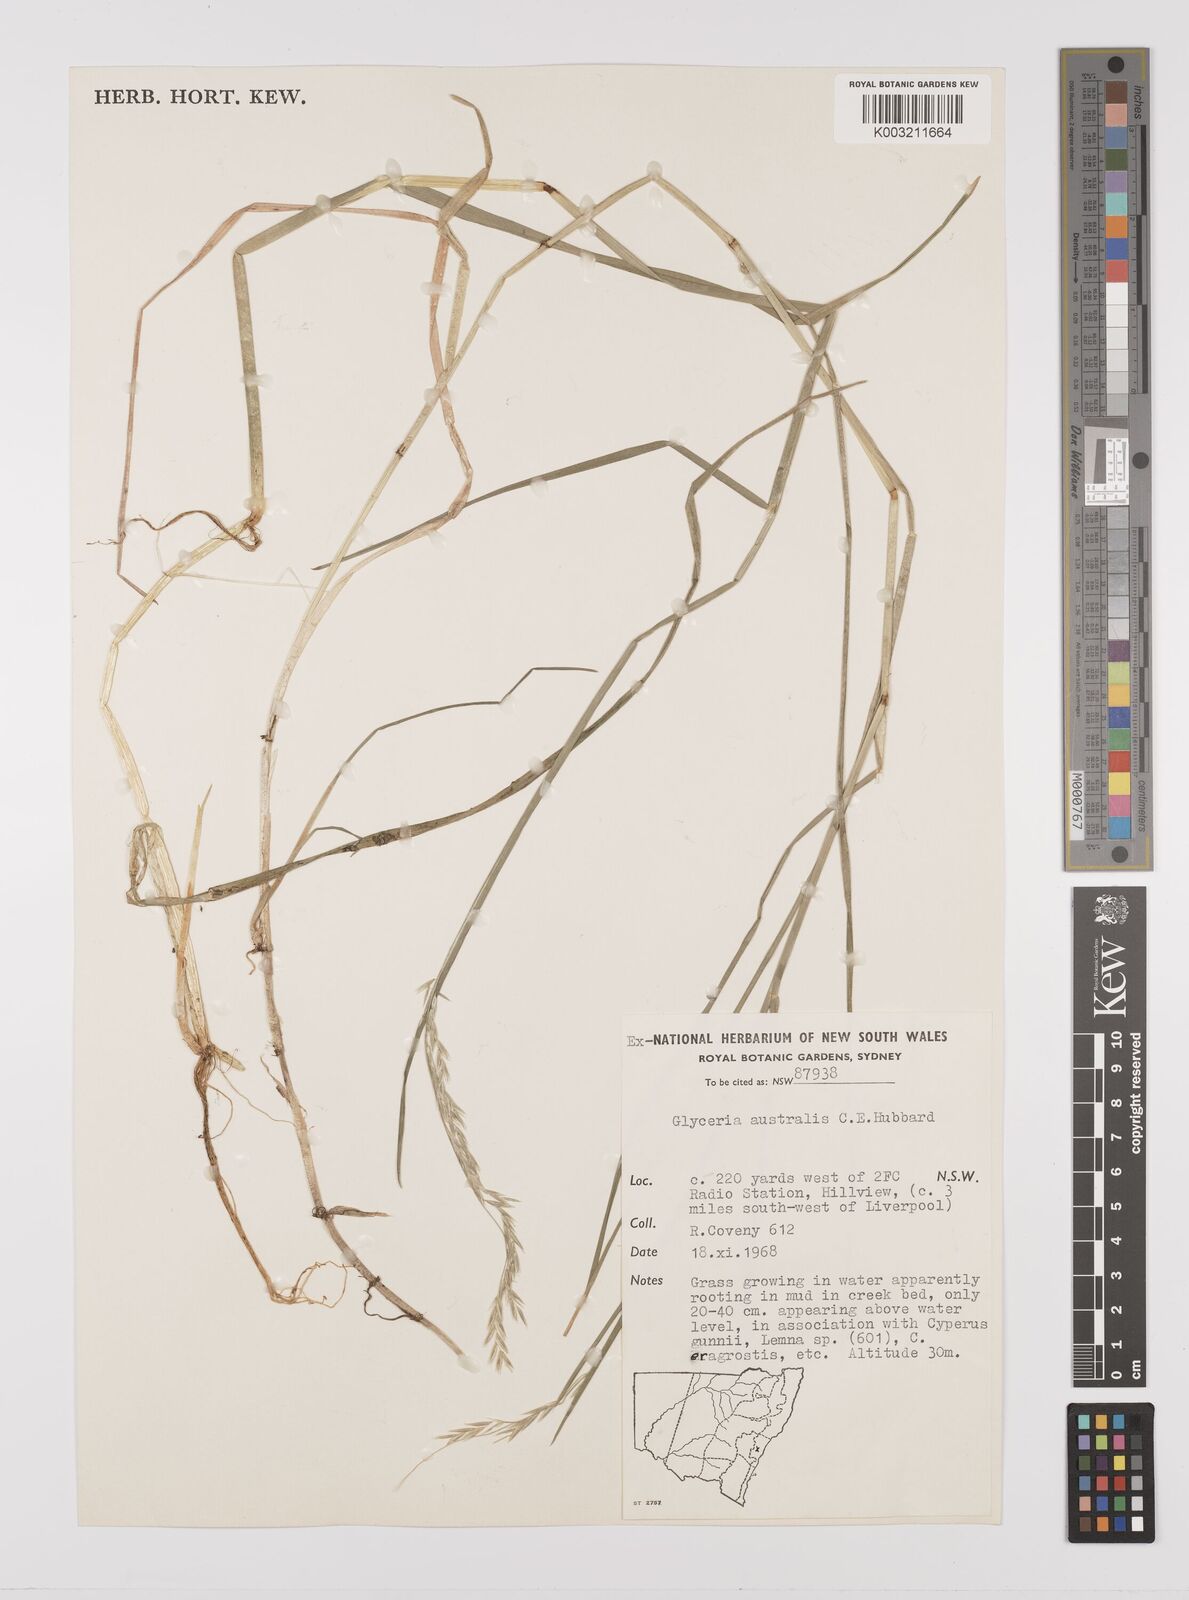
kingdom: Plantae
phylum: Tracheophyta
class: Liliopsida
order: Poales
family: Poaceae
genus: Glyceria
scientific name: Glyceria australis
